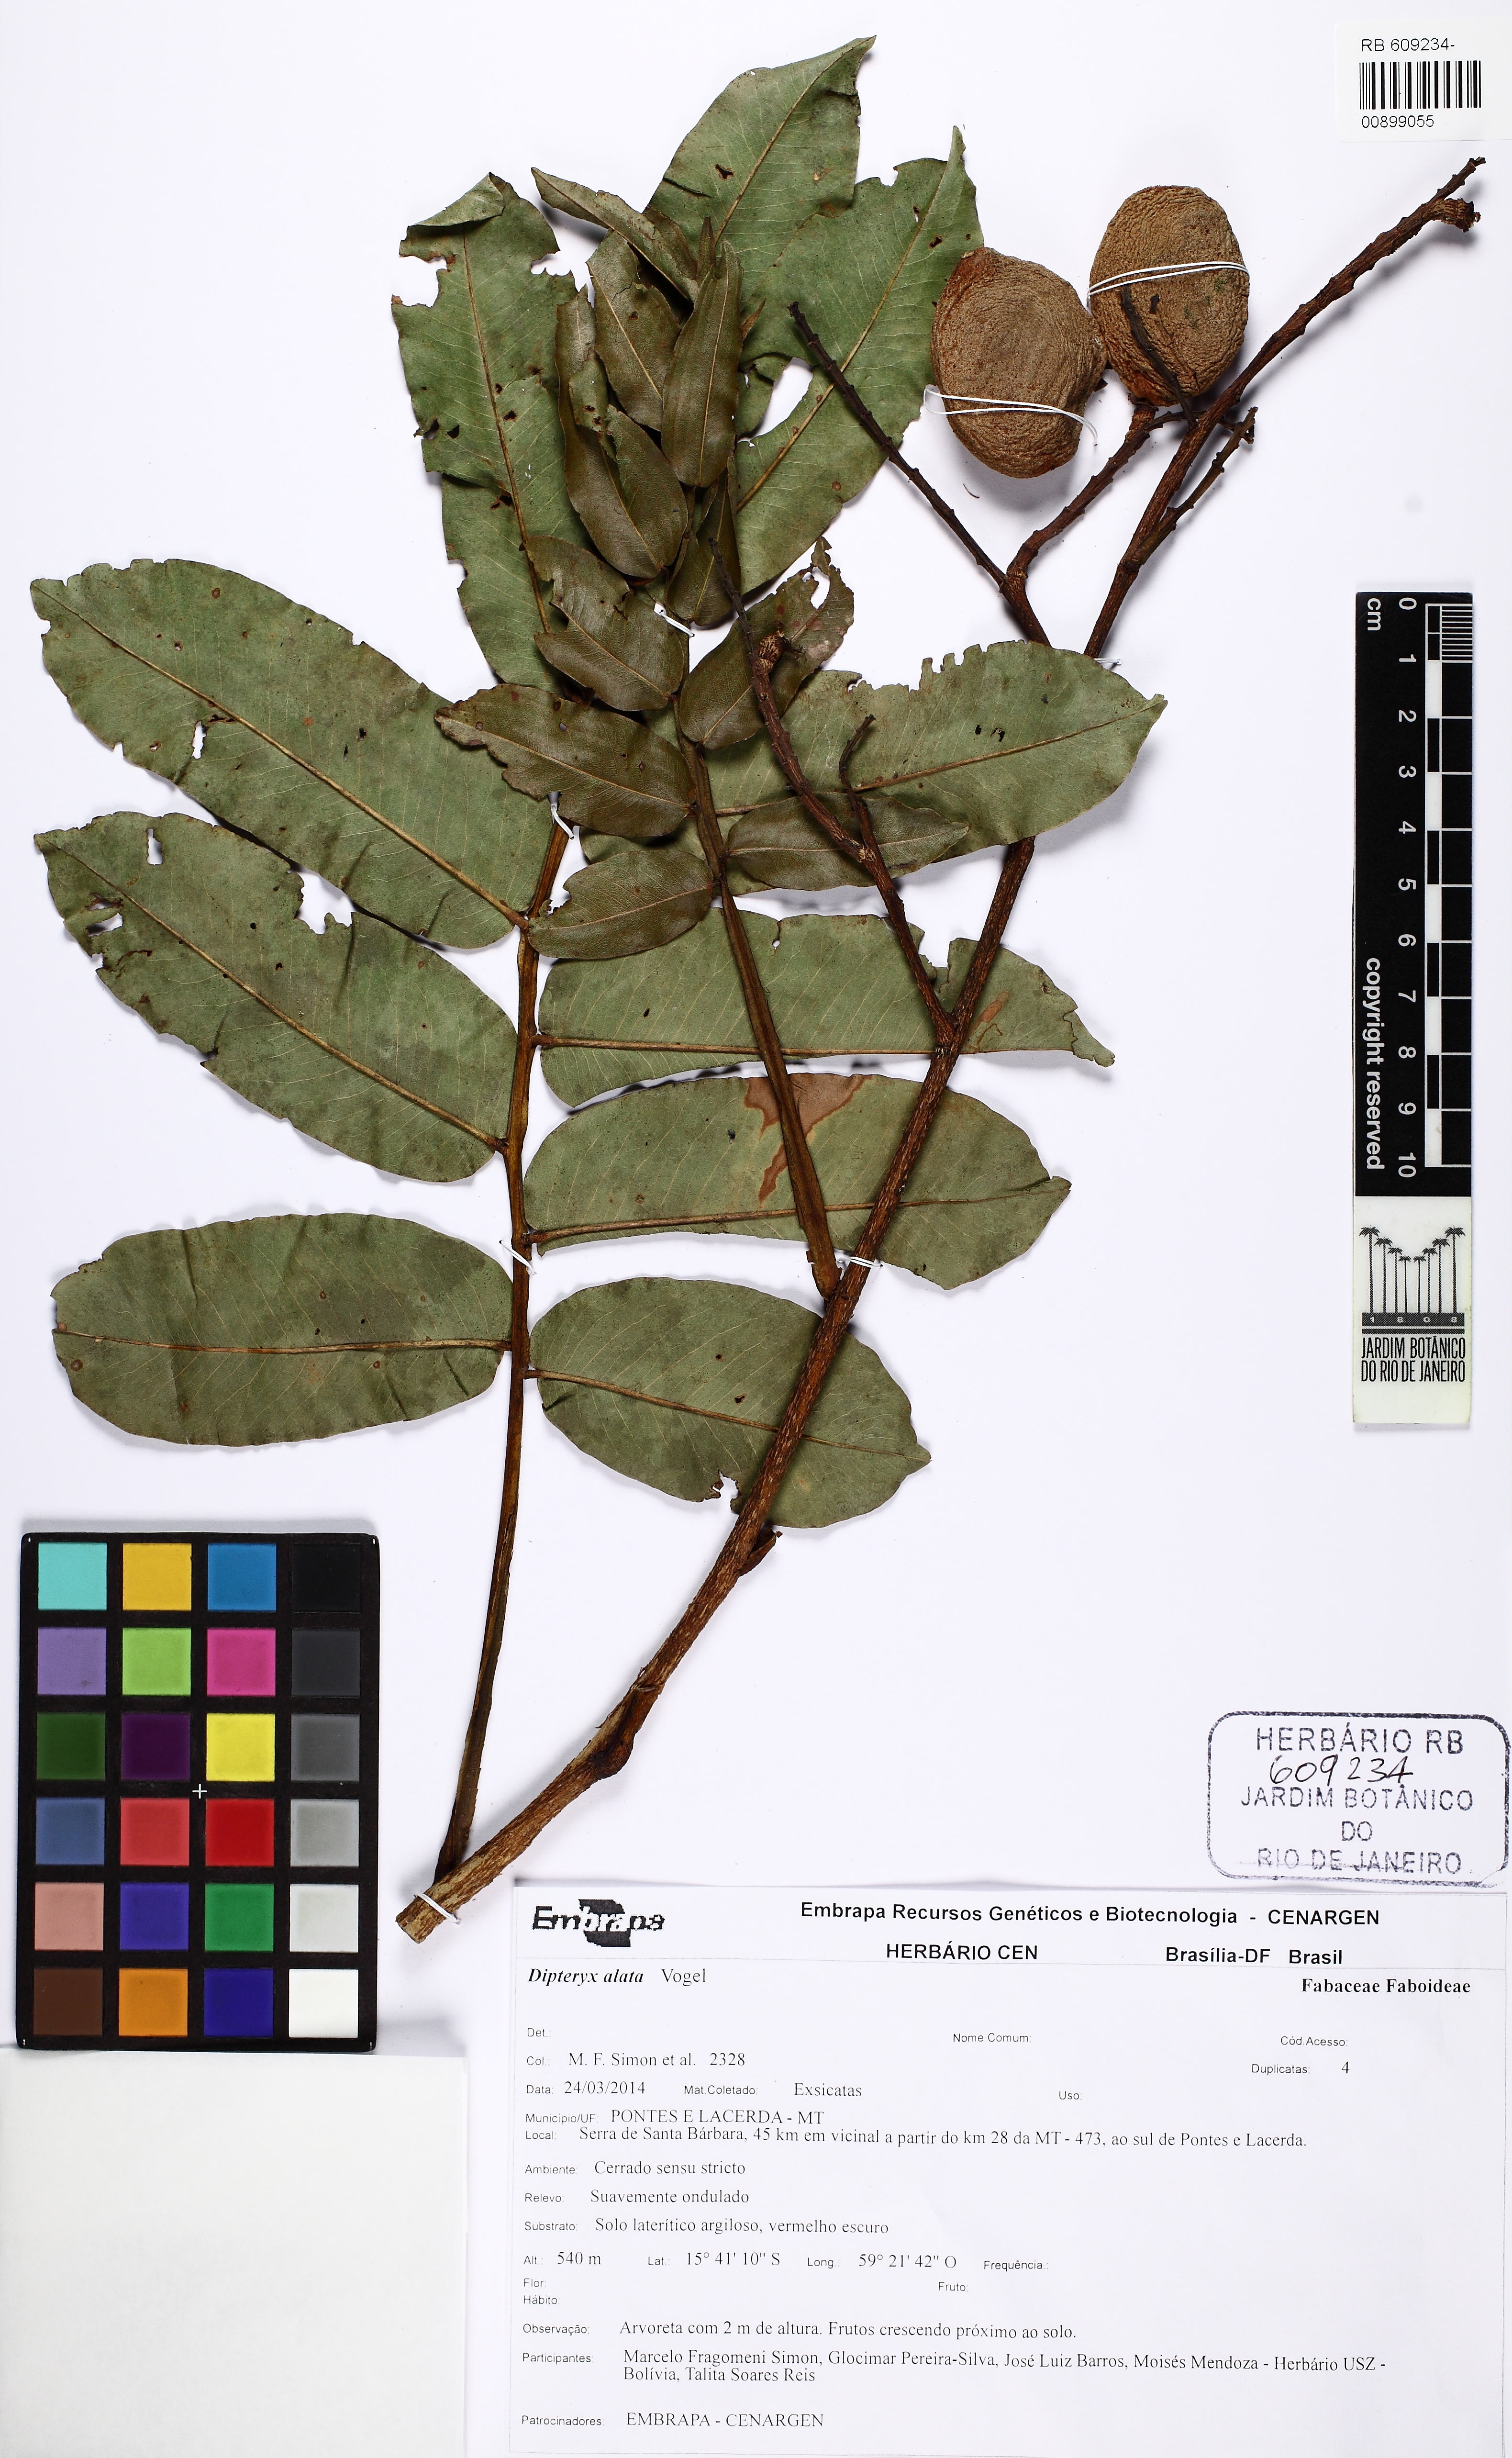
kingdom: Plantae
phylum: Tracheophyta
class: Magnoliopsida
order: Fabales
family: Fabaceae
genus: Dipteryx
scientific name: Dipteryx alata
